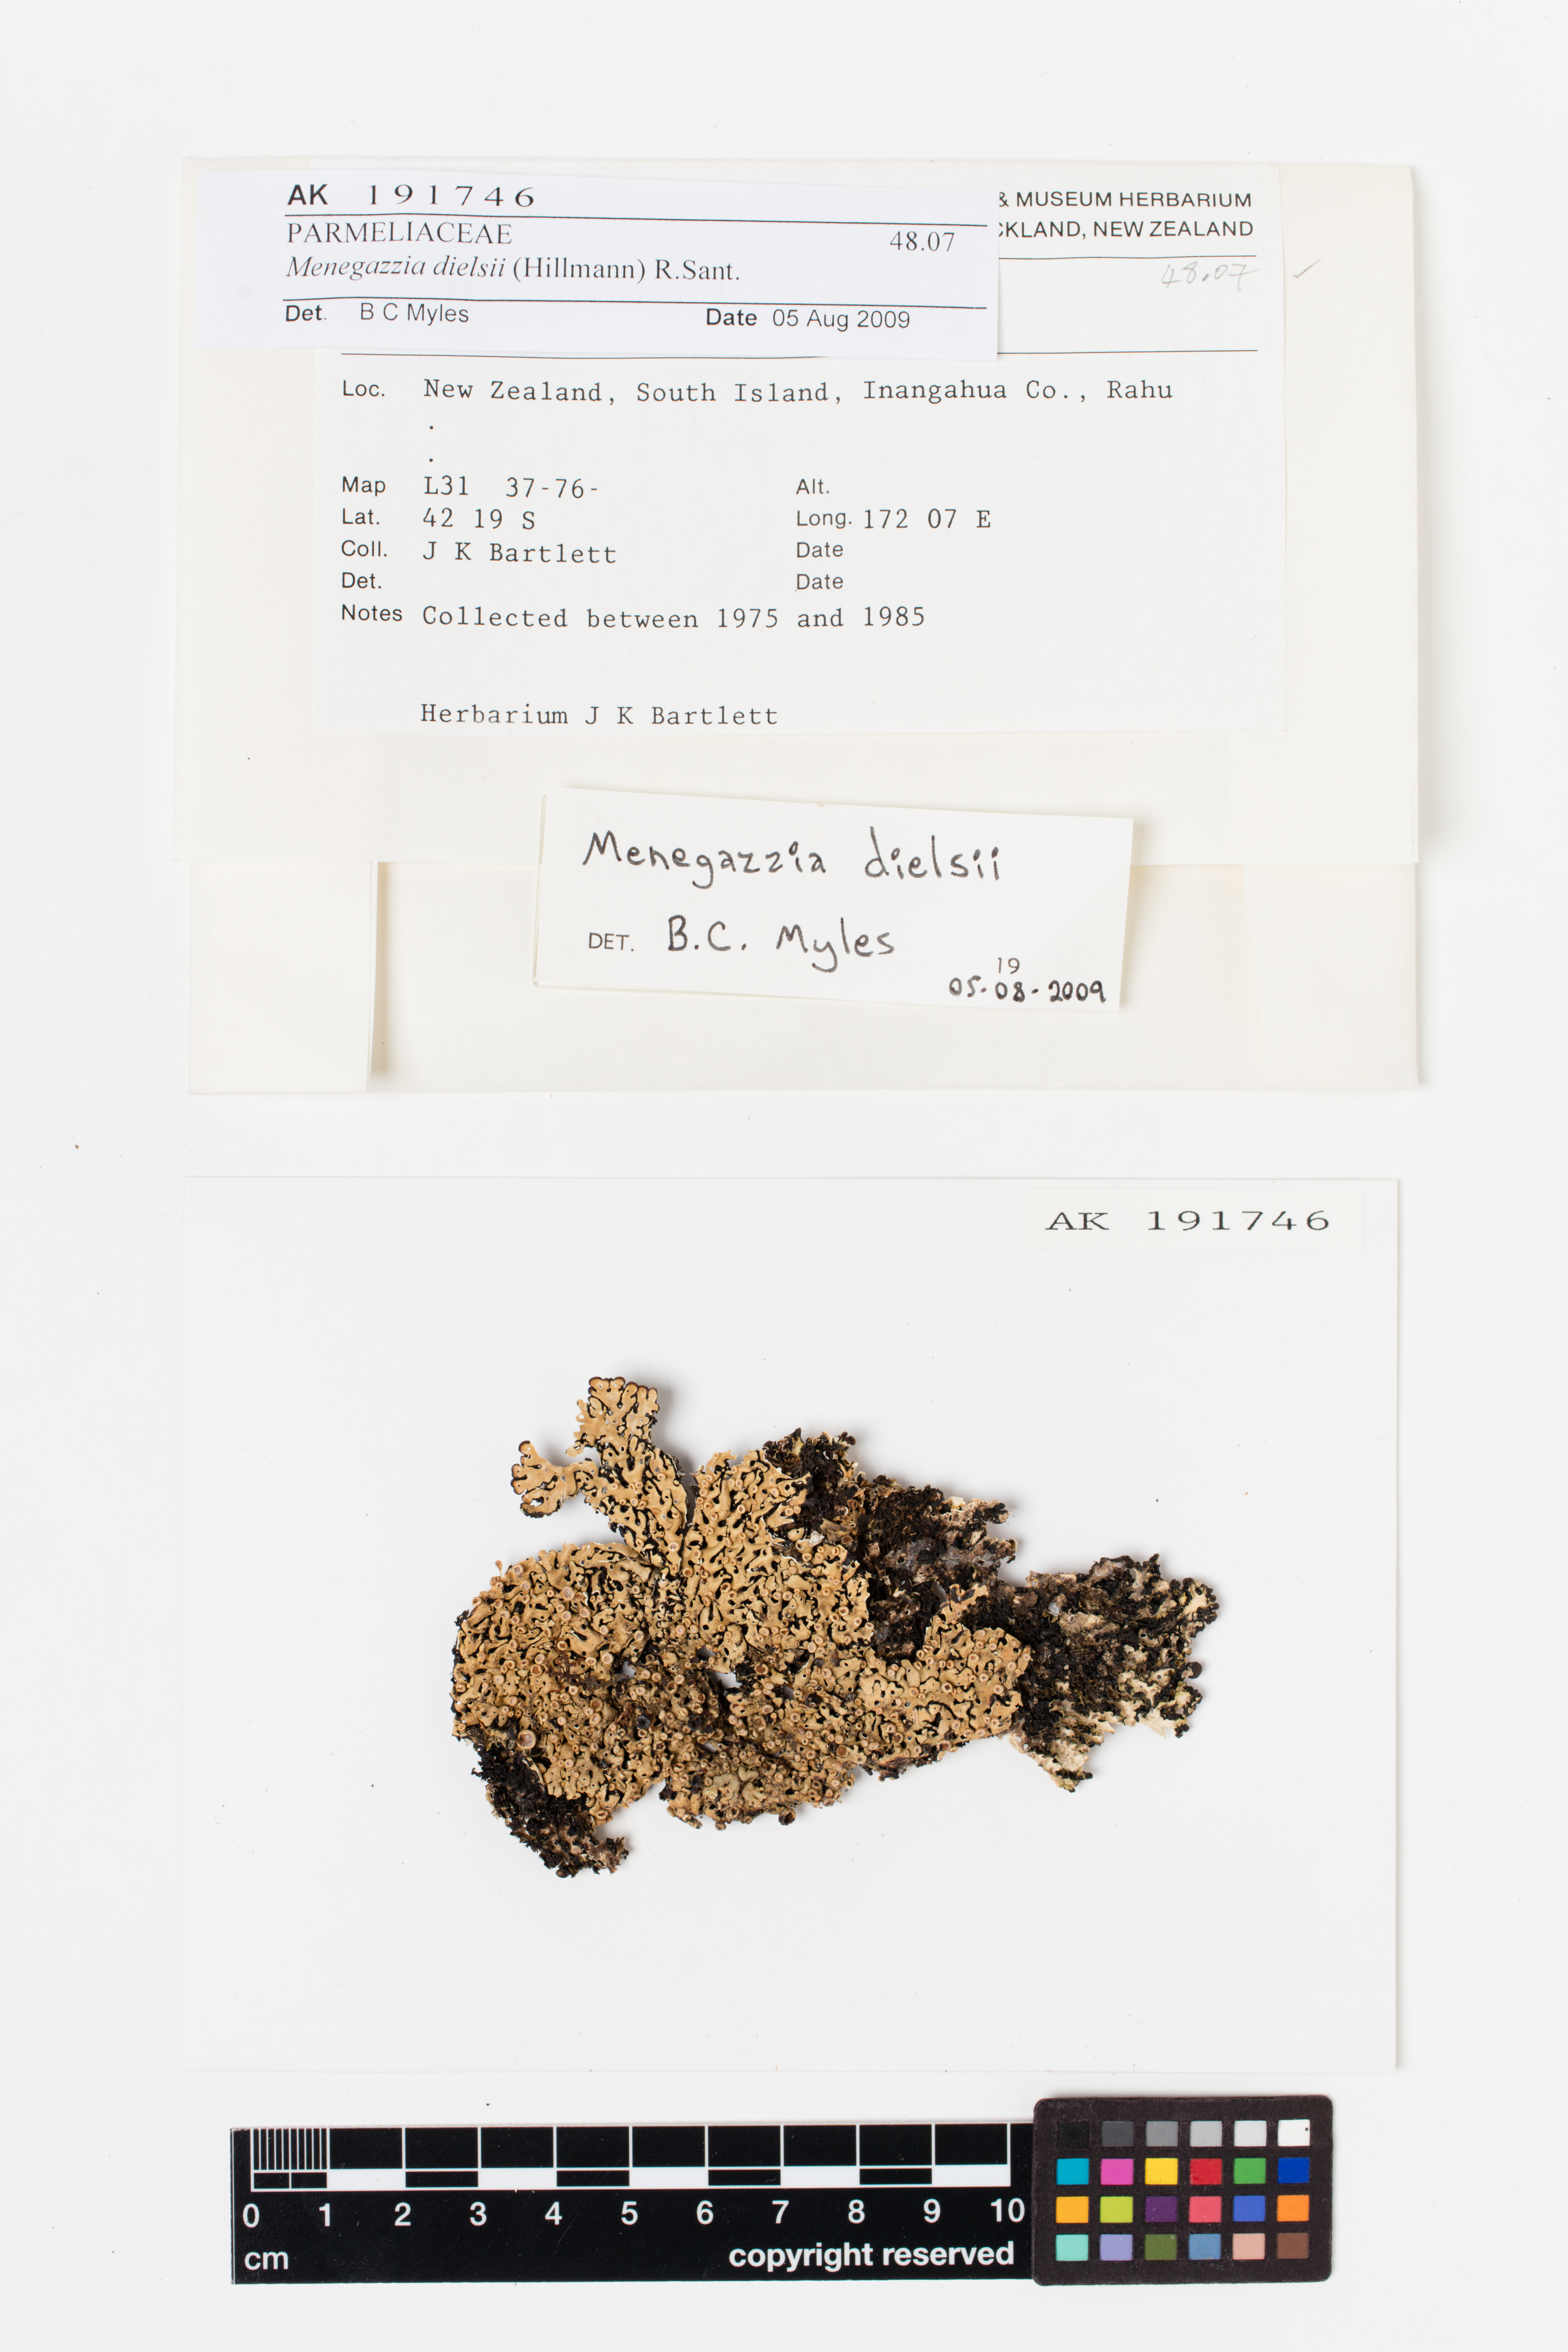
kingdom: Fungi
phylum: Ascomycota
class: Lecanoromycetes
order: Lecanorales
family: Parmeliaceae
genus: Menegazzia
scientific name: Menegazzia dielsii
